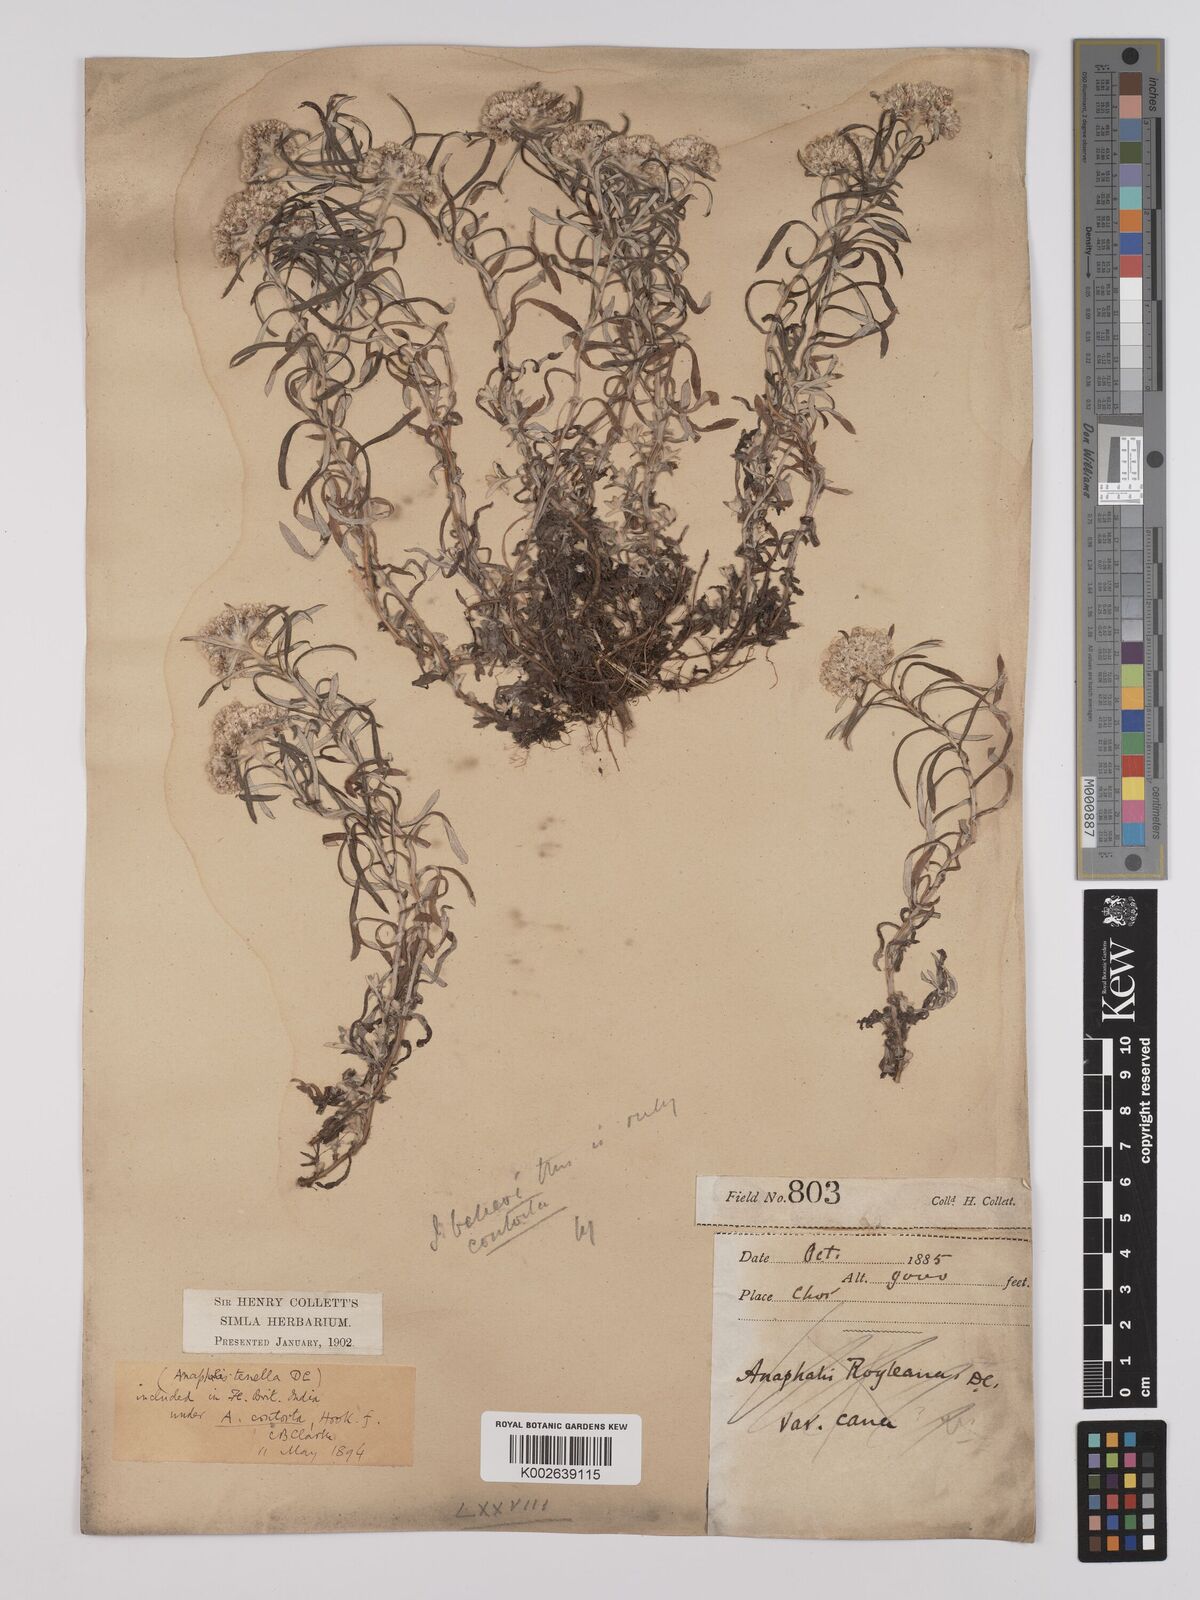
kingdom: Plantae
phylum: Tracheophyta
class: Magnoliopsida
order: Asterales
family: Asteraceae
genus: Anaphalis
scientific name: Anaphalis contorta
